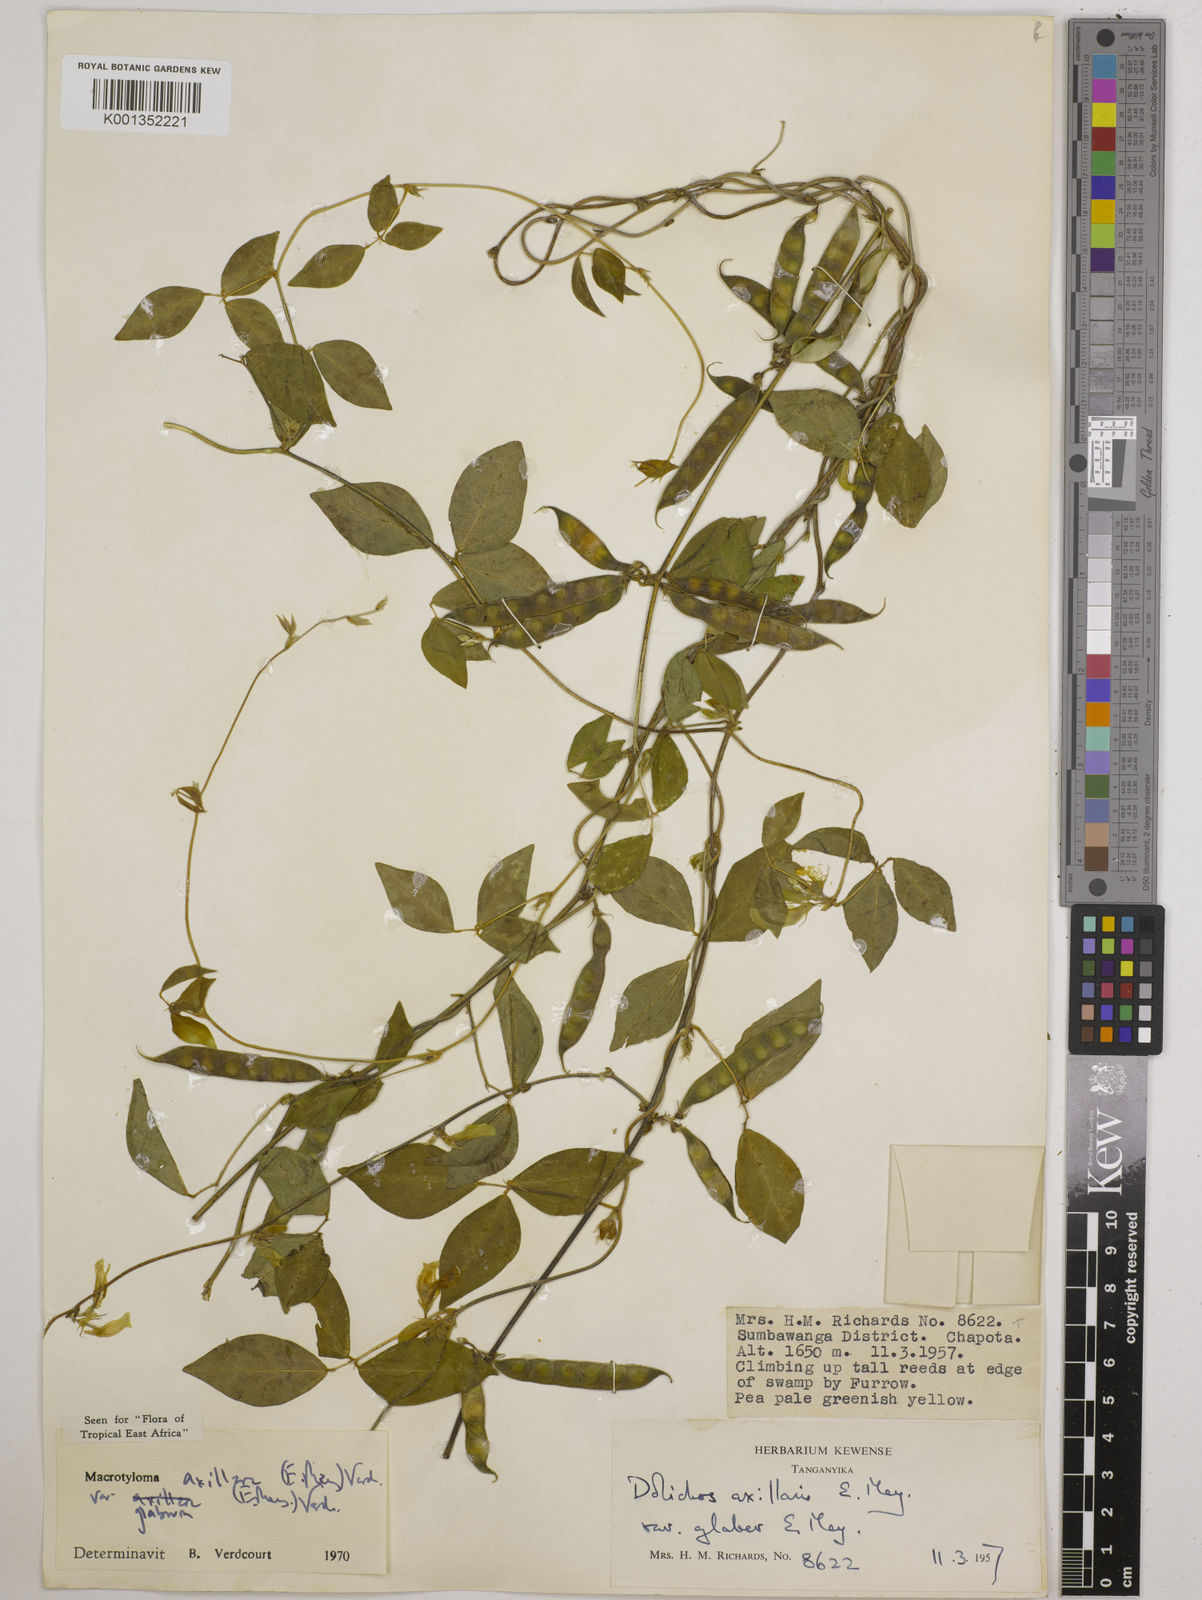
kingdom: Plantae
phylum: Tracheophyta
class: Magnoliopsida
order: Fabales
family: Fabaceae
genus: Macrotyloma
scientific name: Macrotyloma
